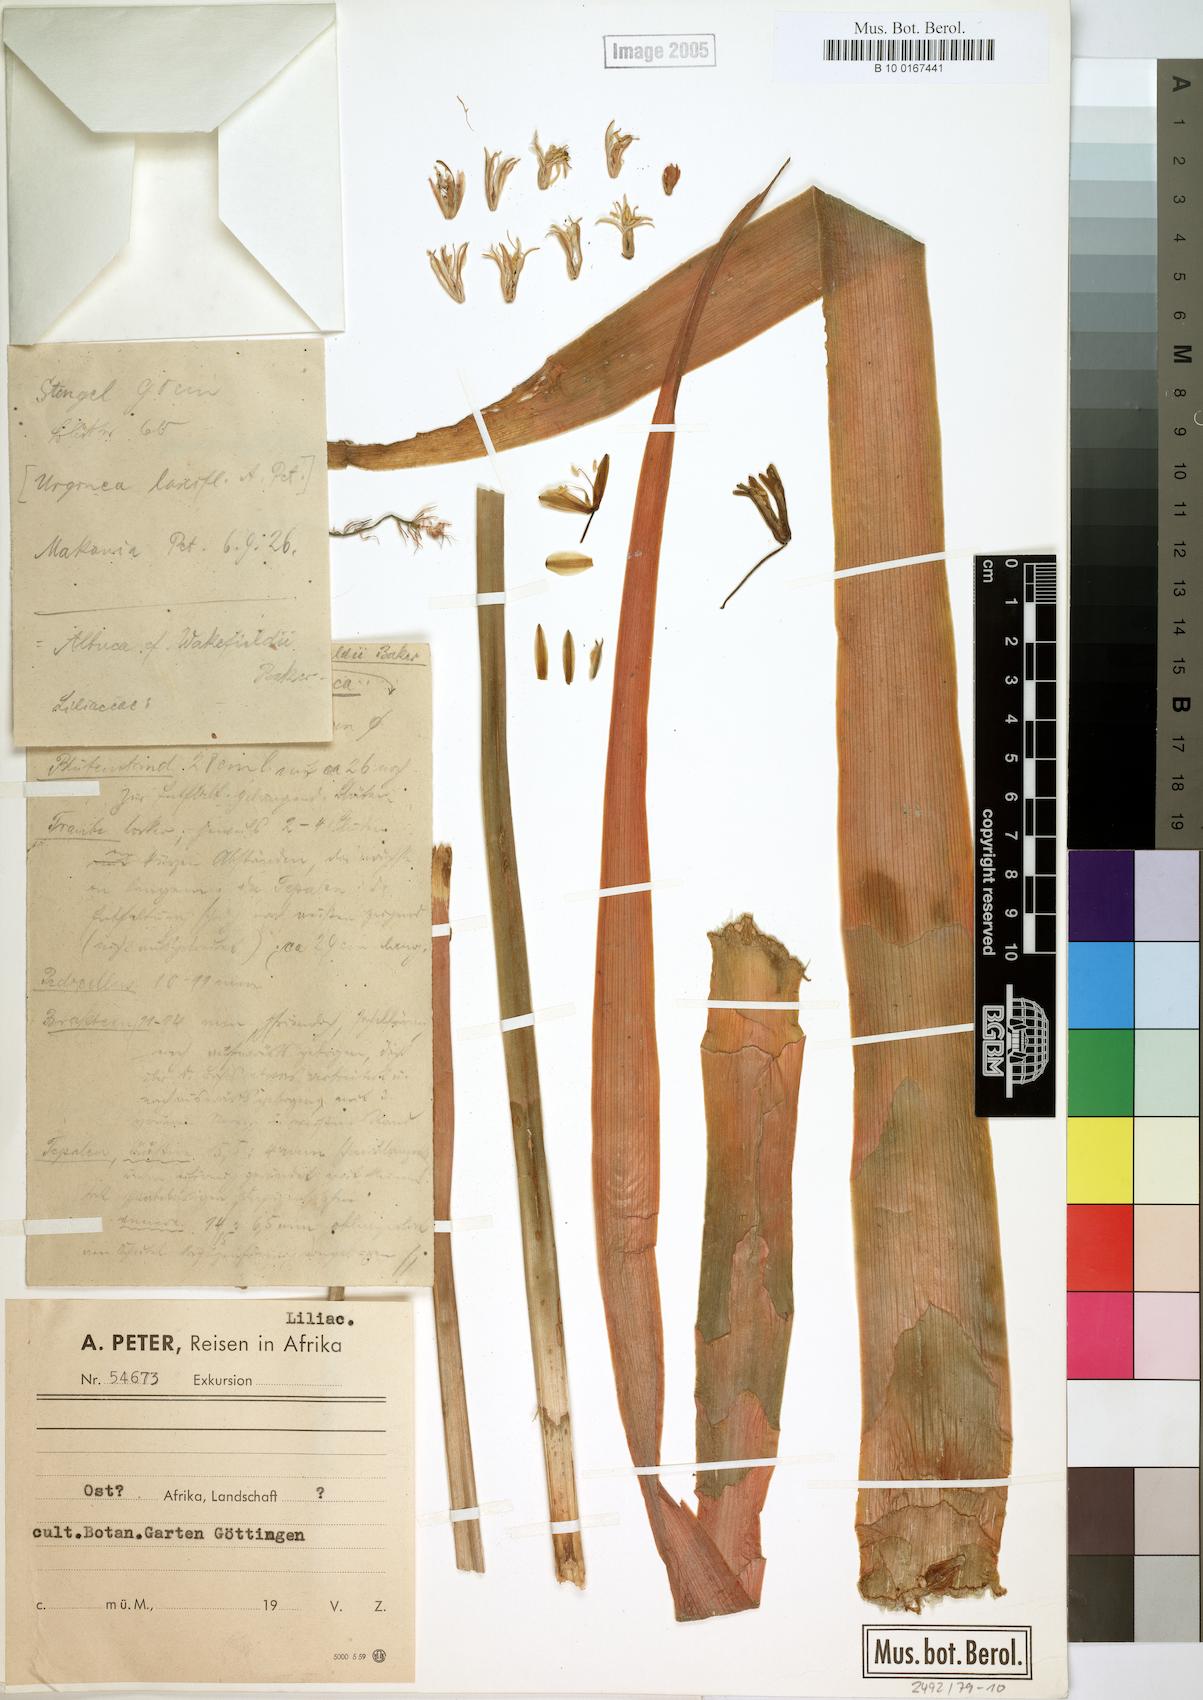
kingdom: Plantae
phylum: Tracheophyta
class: Liliopsida
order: Asparagales
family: Asparagaceae
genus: Albuca
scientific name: Albuca abyssinica
